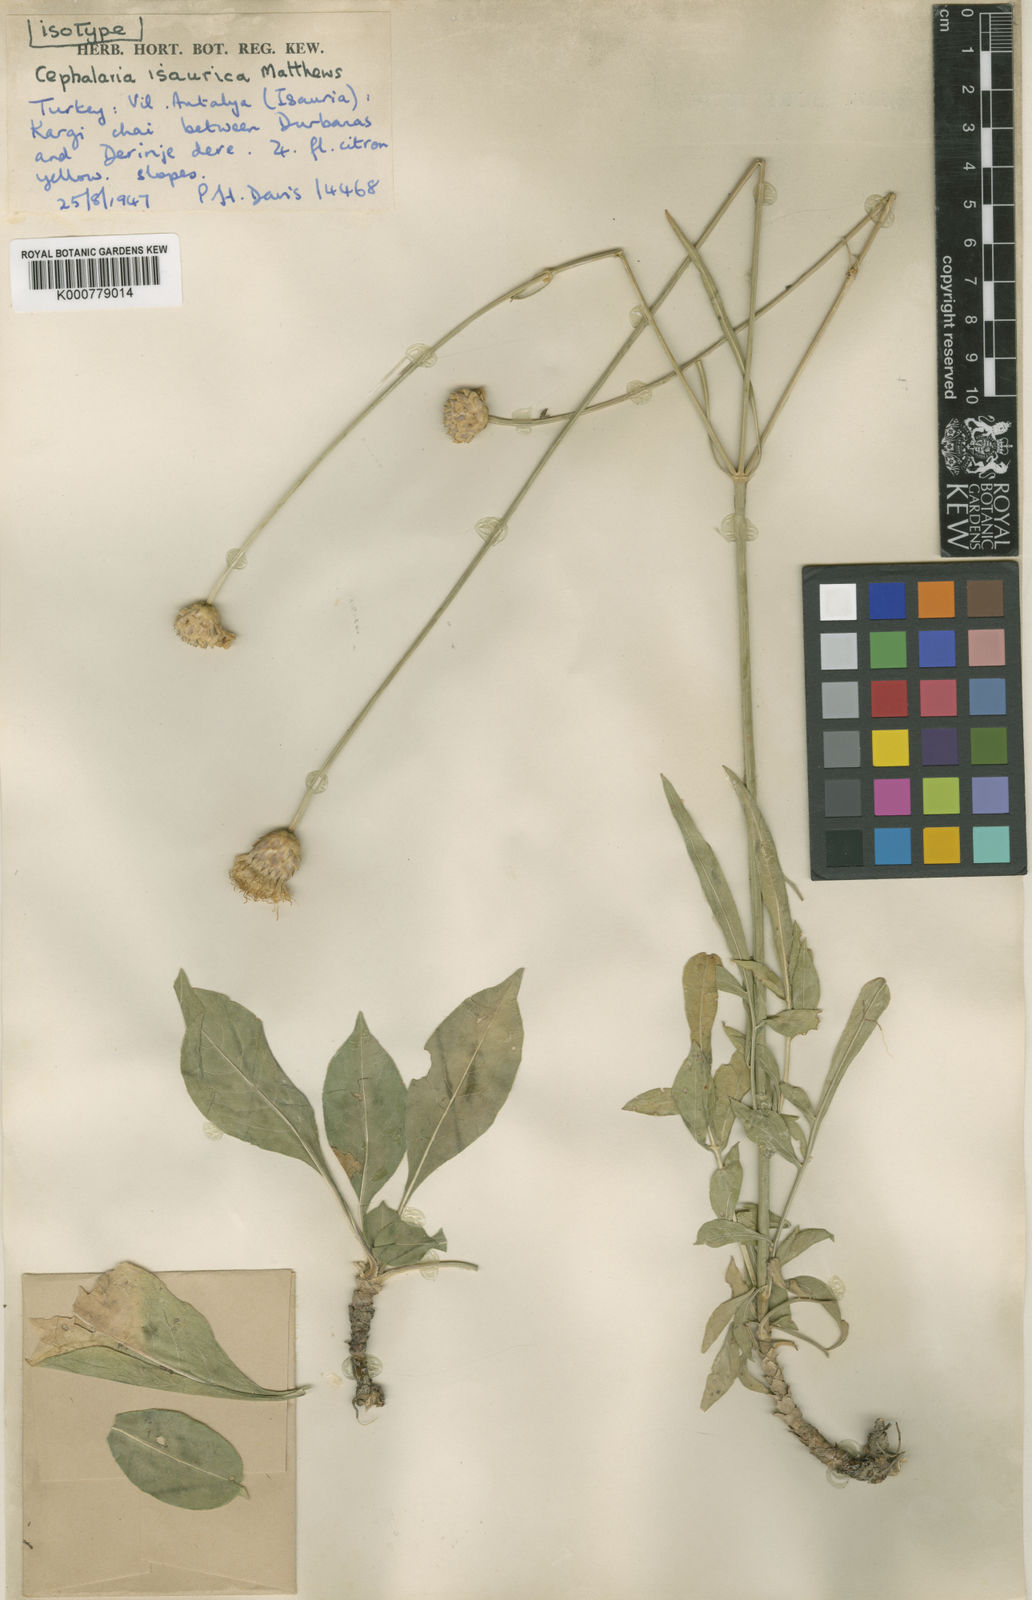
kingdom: Plantae
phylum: Tracheophyta
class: Magnoliopsida
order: Dipsacales
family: Caprifoliaceae
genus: Cephalaria
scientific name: Cephalaria isaurica
